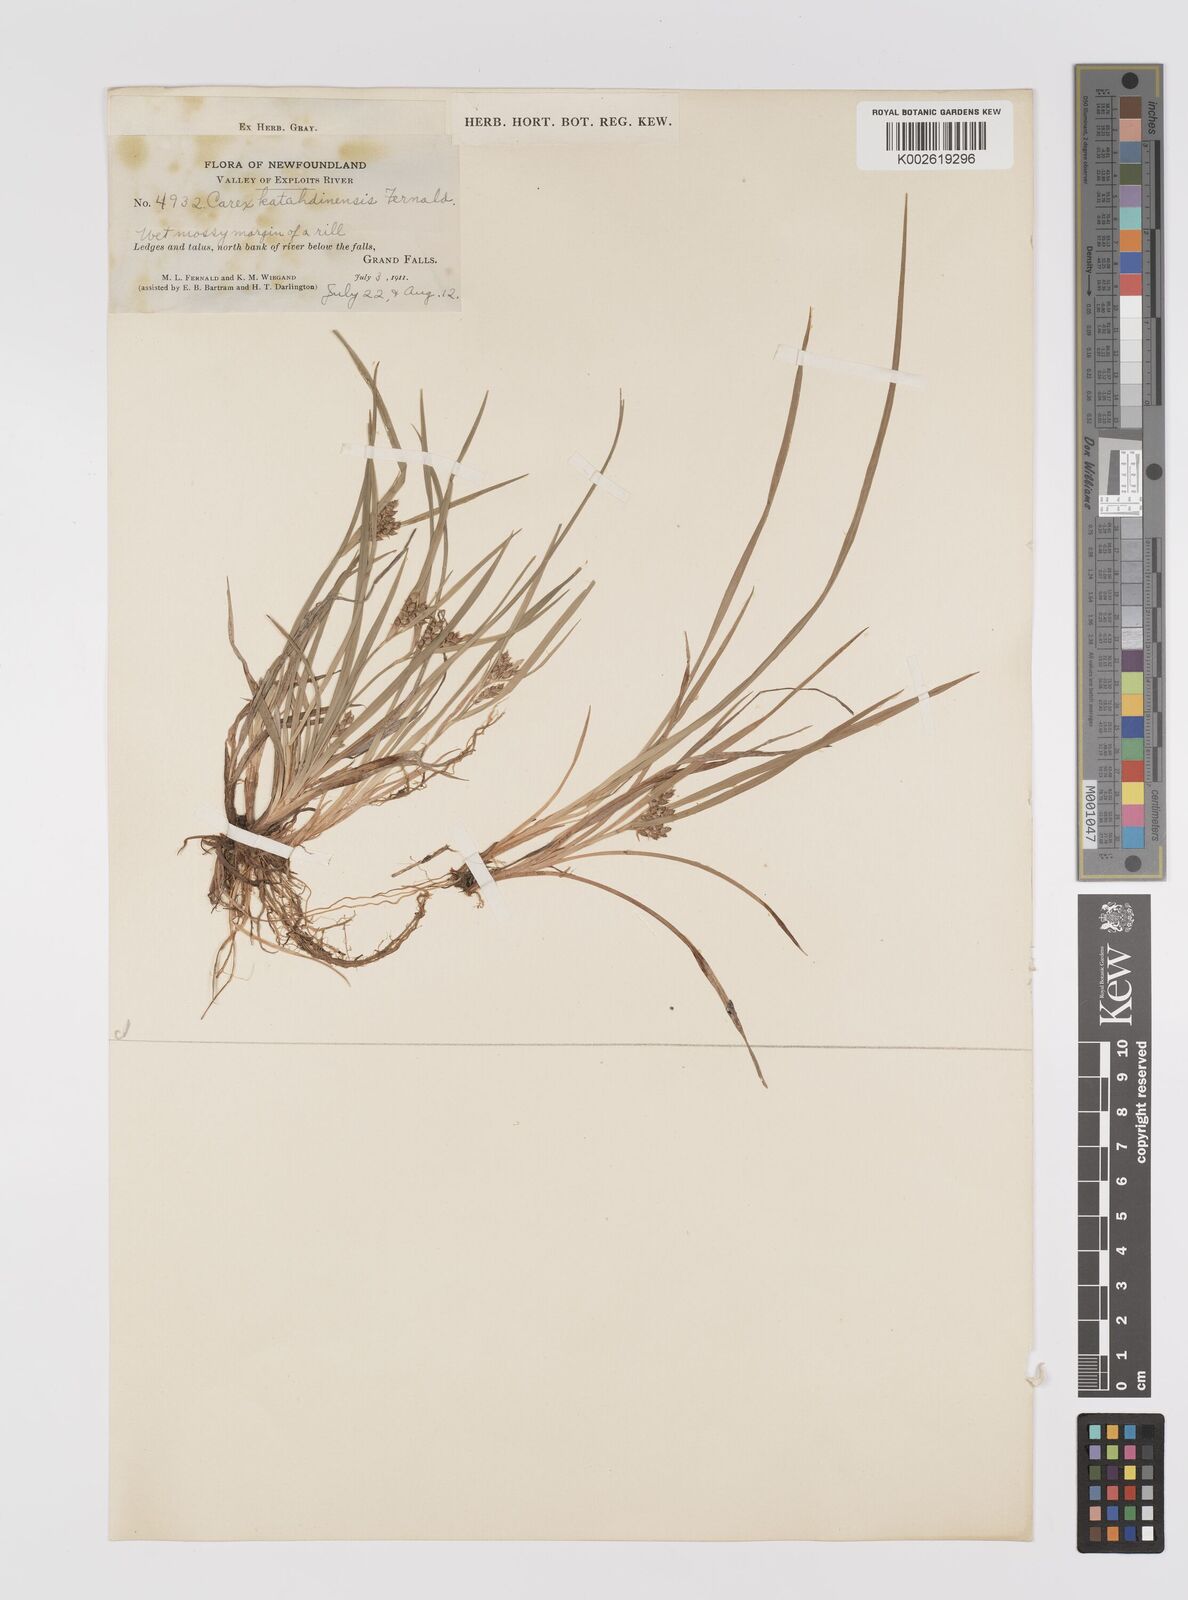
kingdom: Plantae
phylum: Tracheophyta
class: Liliopsida
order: Poales
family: Cyperaceae
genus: Carex
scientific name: Carex conoidea
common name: Cone shaped sedge
